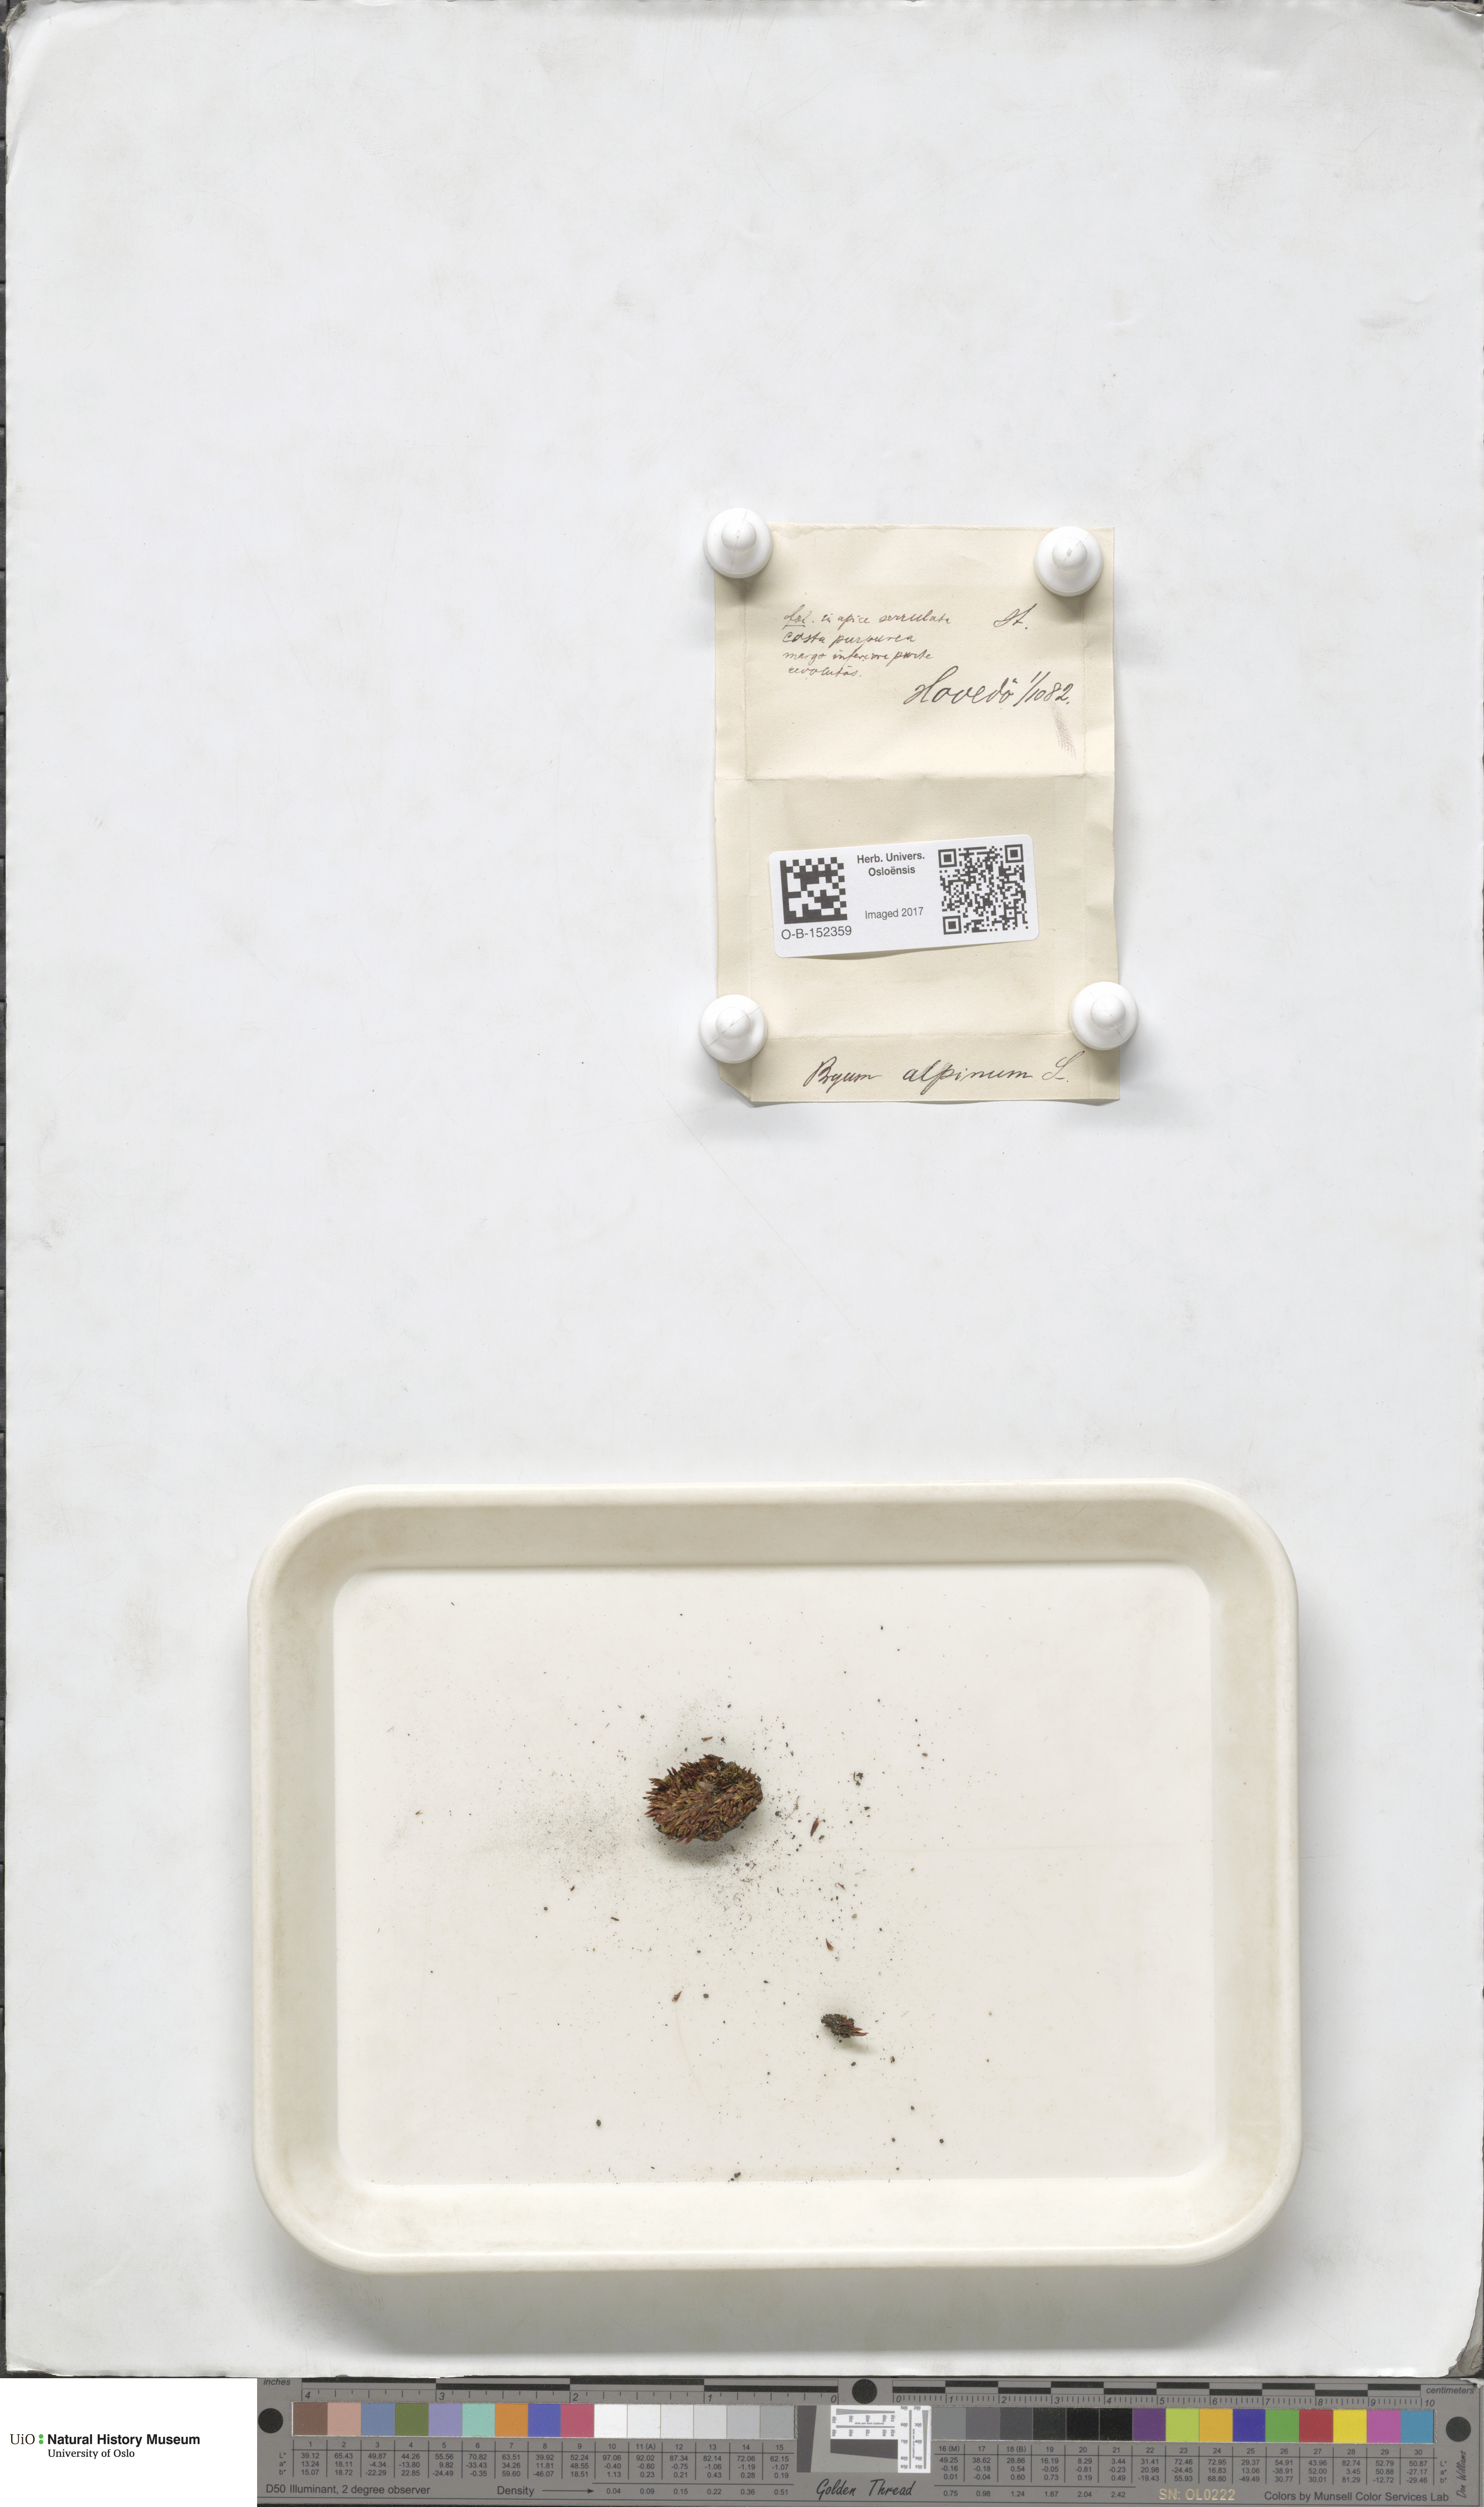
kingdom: Plantae
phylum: Bryophyta
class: Bryopsida
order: Bryales
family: Bryaceae
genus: Imbribryum
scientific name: Imbribryum alpinum
